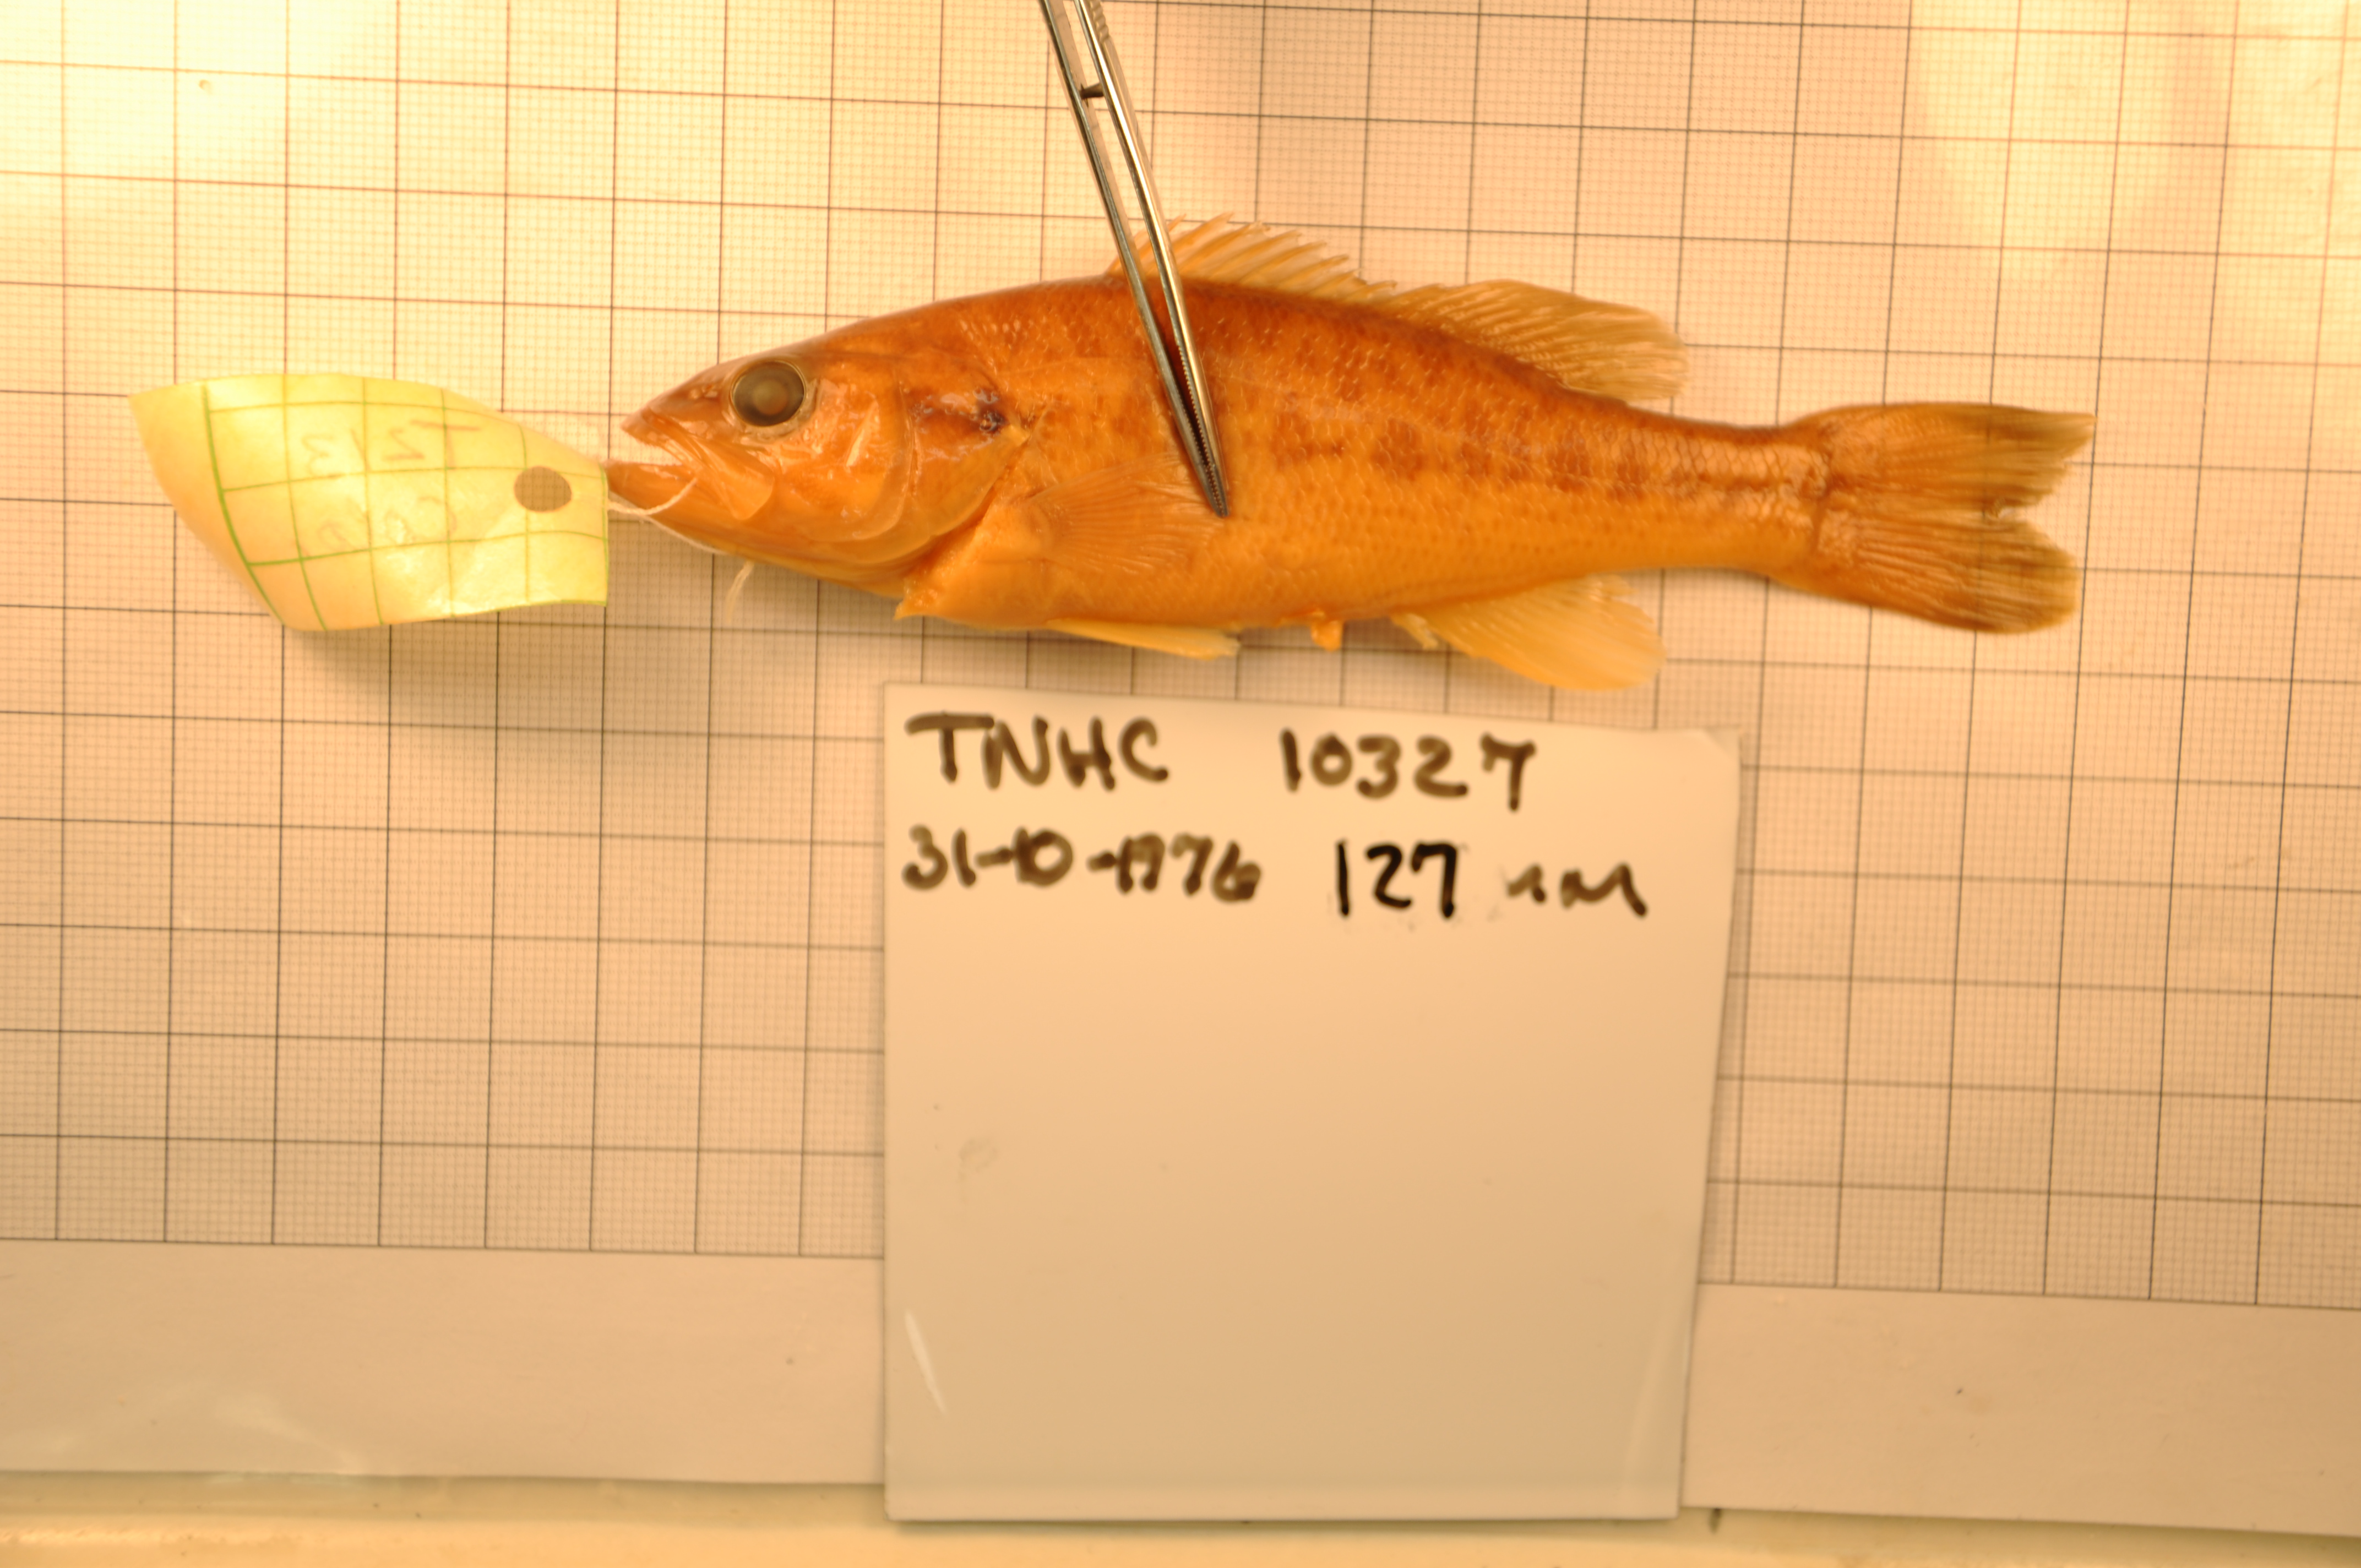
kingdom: Animalia
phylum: Chordata
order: Perciformes
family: Centrarchidae
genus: Micropterus
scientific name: Micropterus treculii
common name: Guadalupe bass
